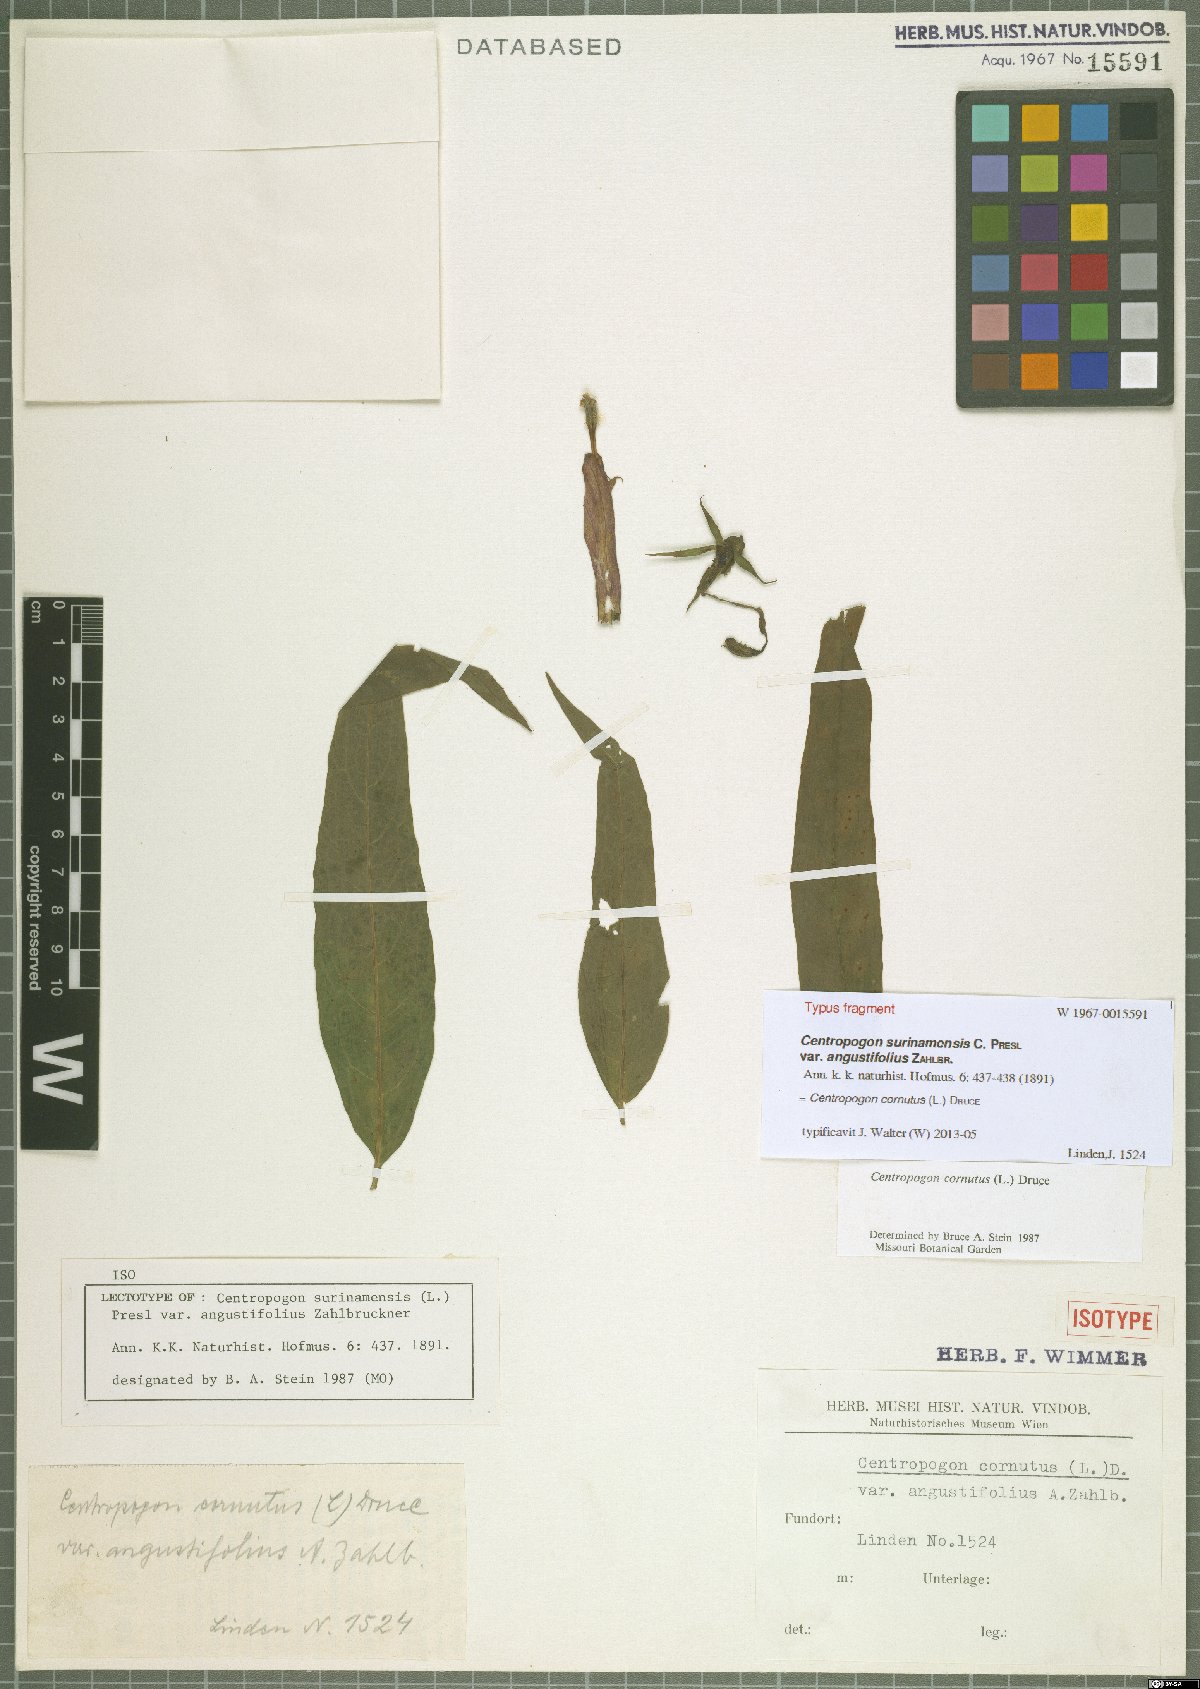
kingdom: Plantae
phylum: Tracheophyta
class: Magnoliopsida
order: Asterales
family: Campanulaceae
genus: Centropogon
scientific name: Centropogon cornutus
